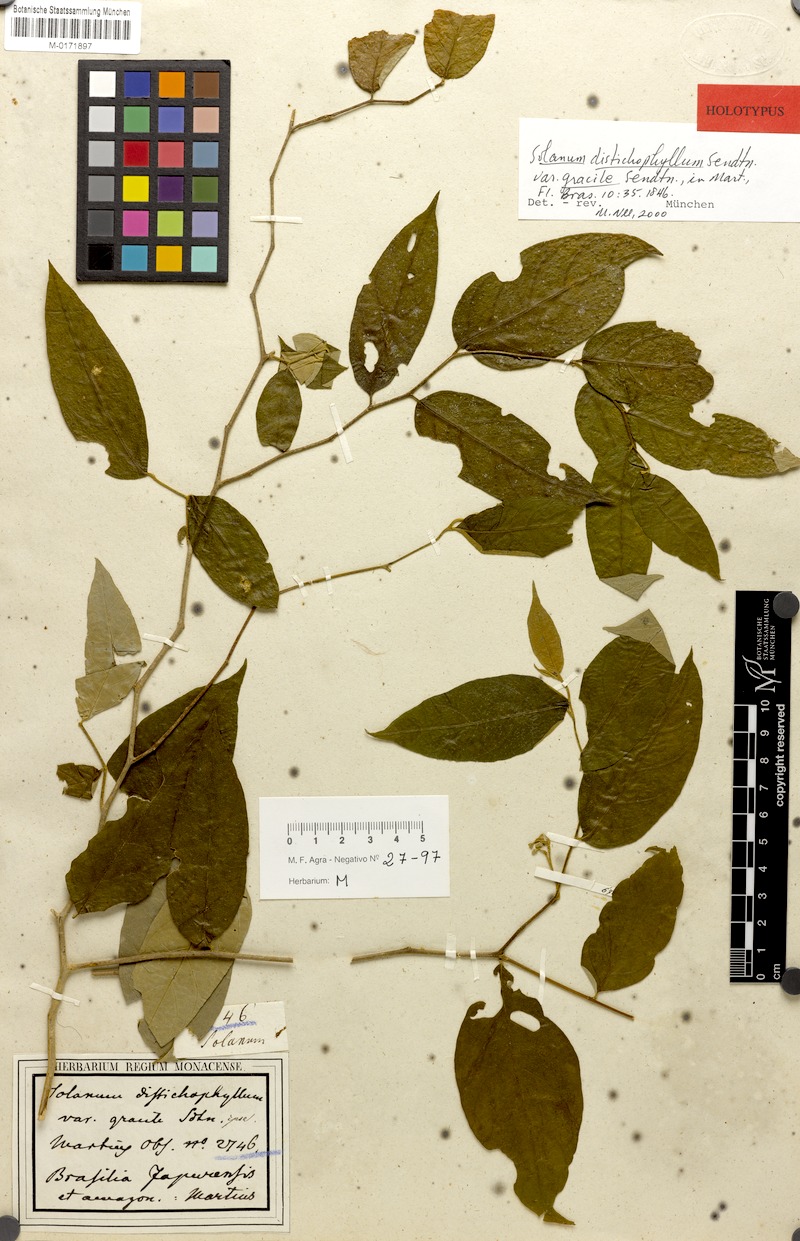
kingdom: Plantae
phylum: Tracheophyta
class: Magnoliopsida
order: Solanales
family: Solanaceae
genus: Solanum
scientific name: Solanum distichophyllum
